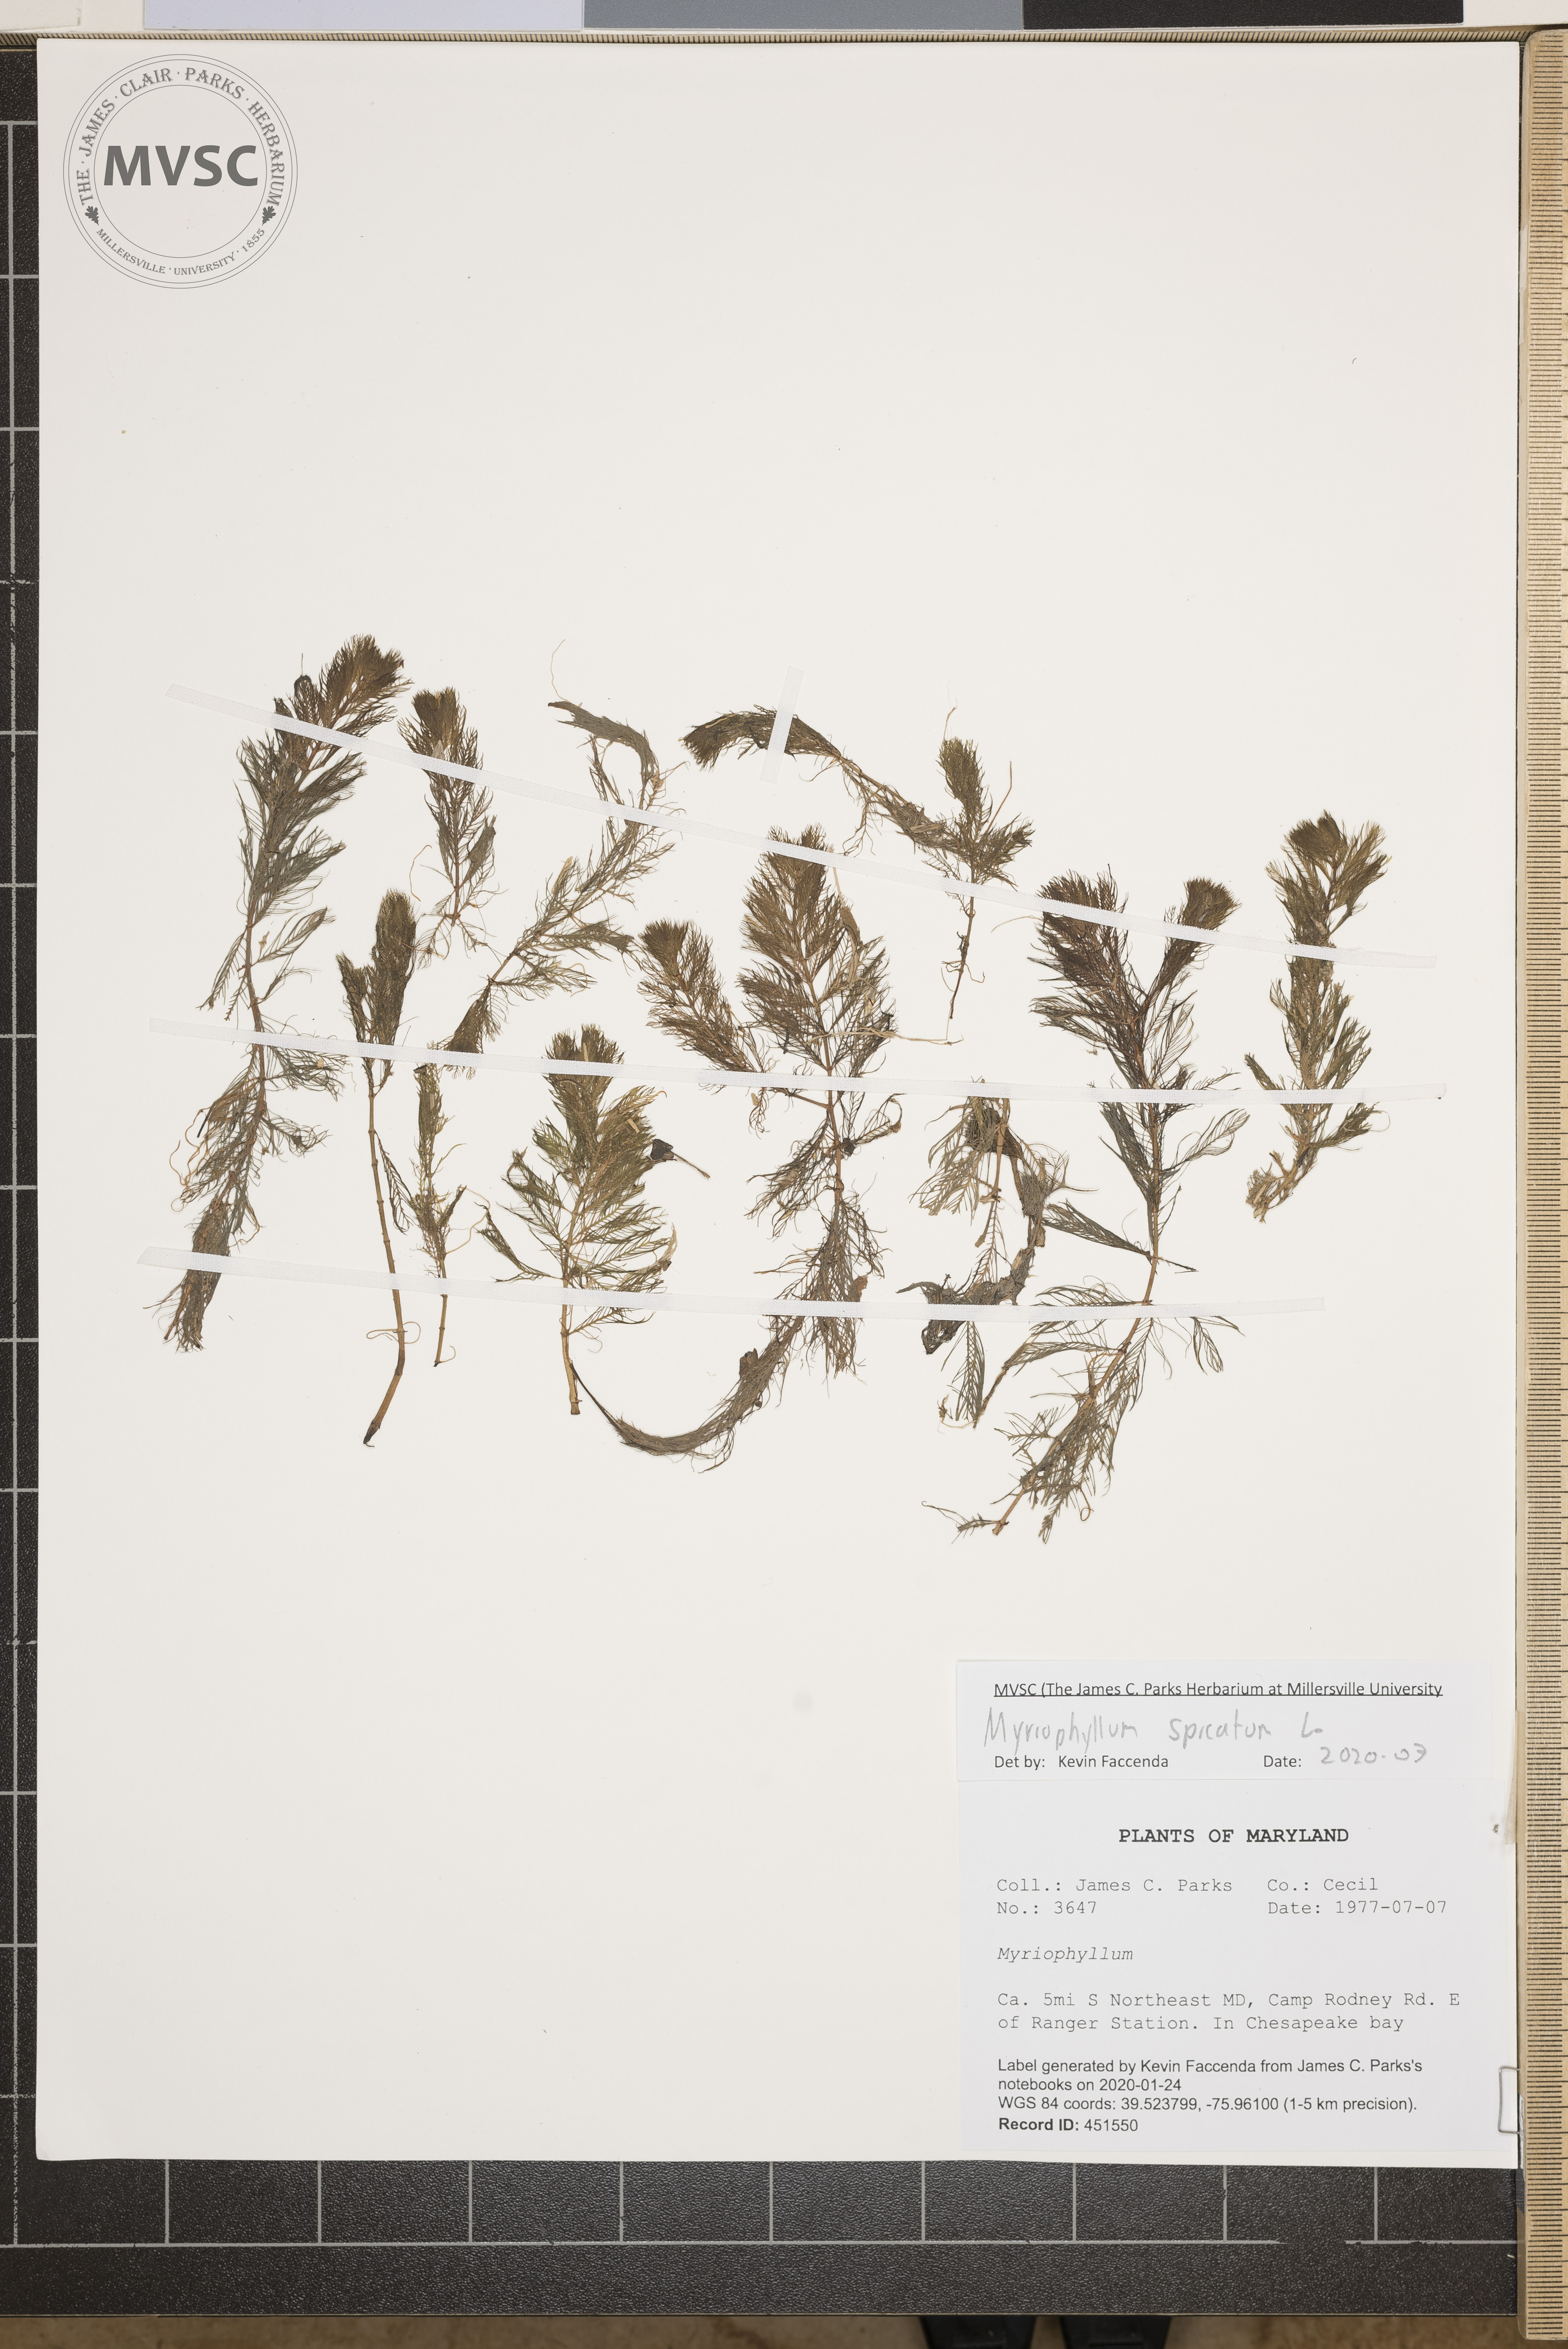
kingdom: Plantae
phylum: Tracheophyta
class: Magnoliopsida
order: Saxifragales
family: Haloragaceae
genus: Myriophyllum
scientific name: Myriophyllum spicatum
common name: Spiked water-milfoil
